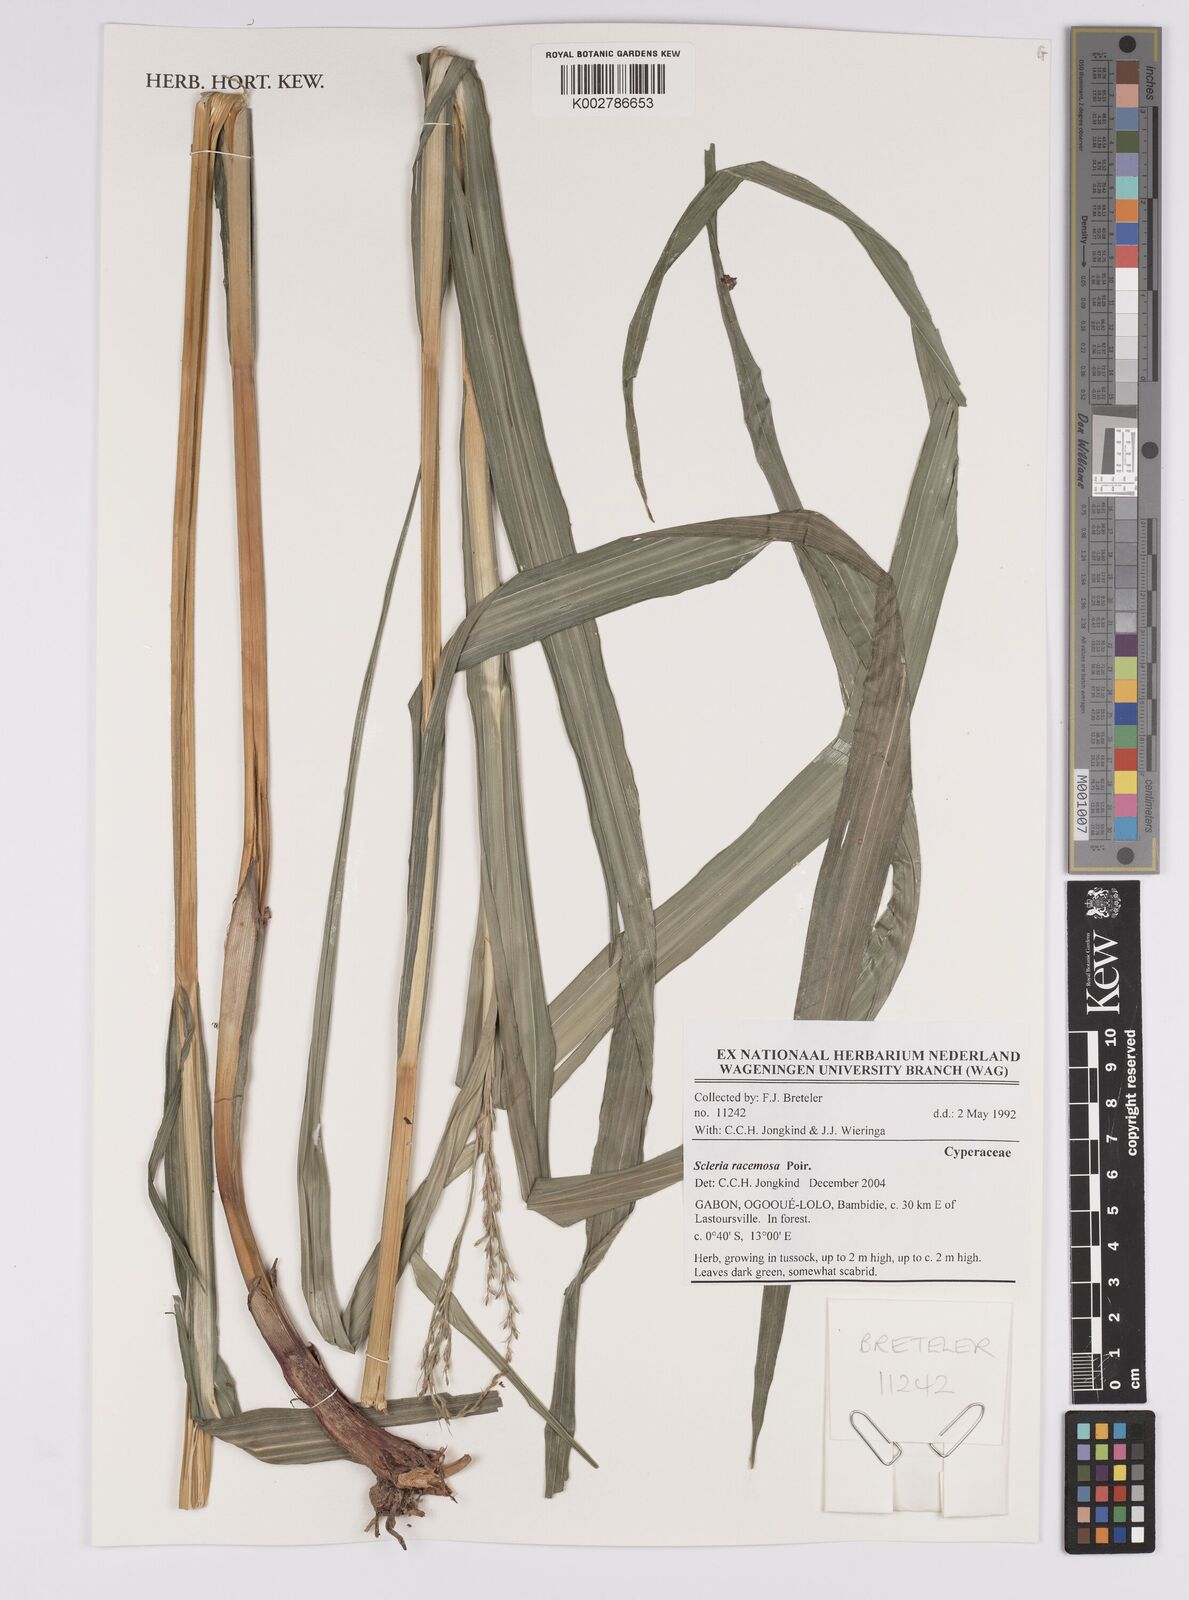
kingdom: Plantae
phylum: Tracheophyta
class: Liliopsida
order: Poales
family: Cyperaceae
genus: Scleria
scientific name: Scleria racemosa
